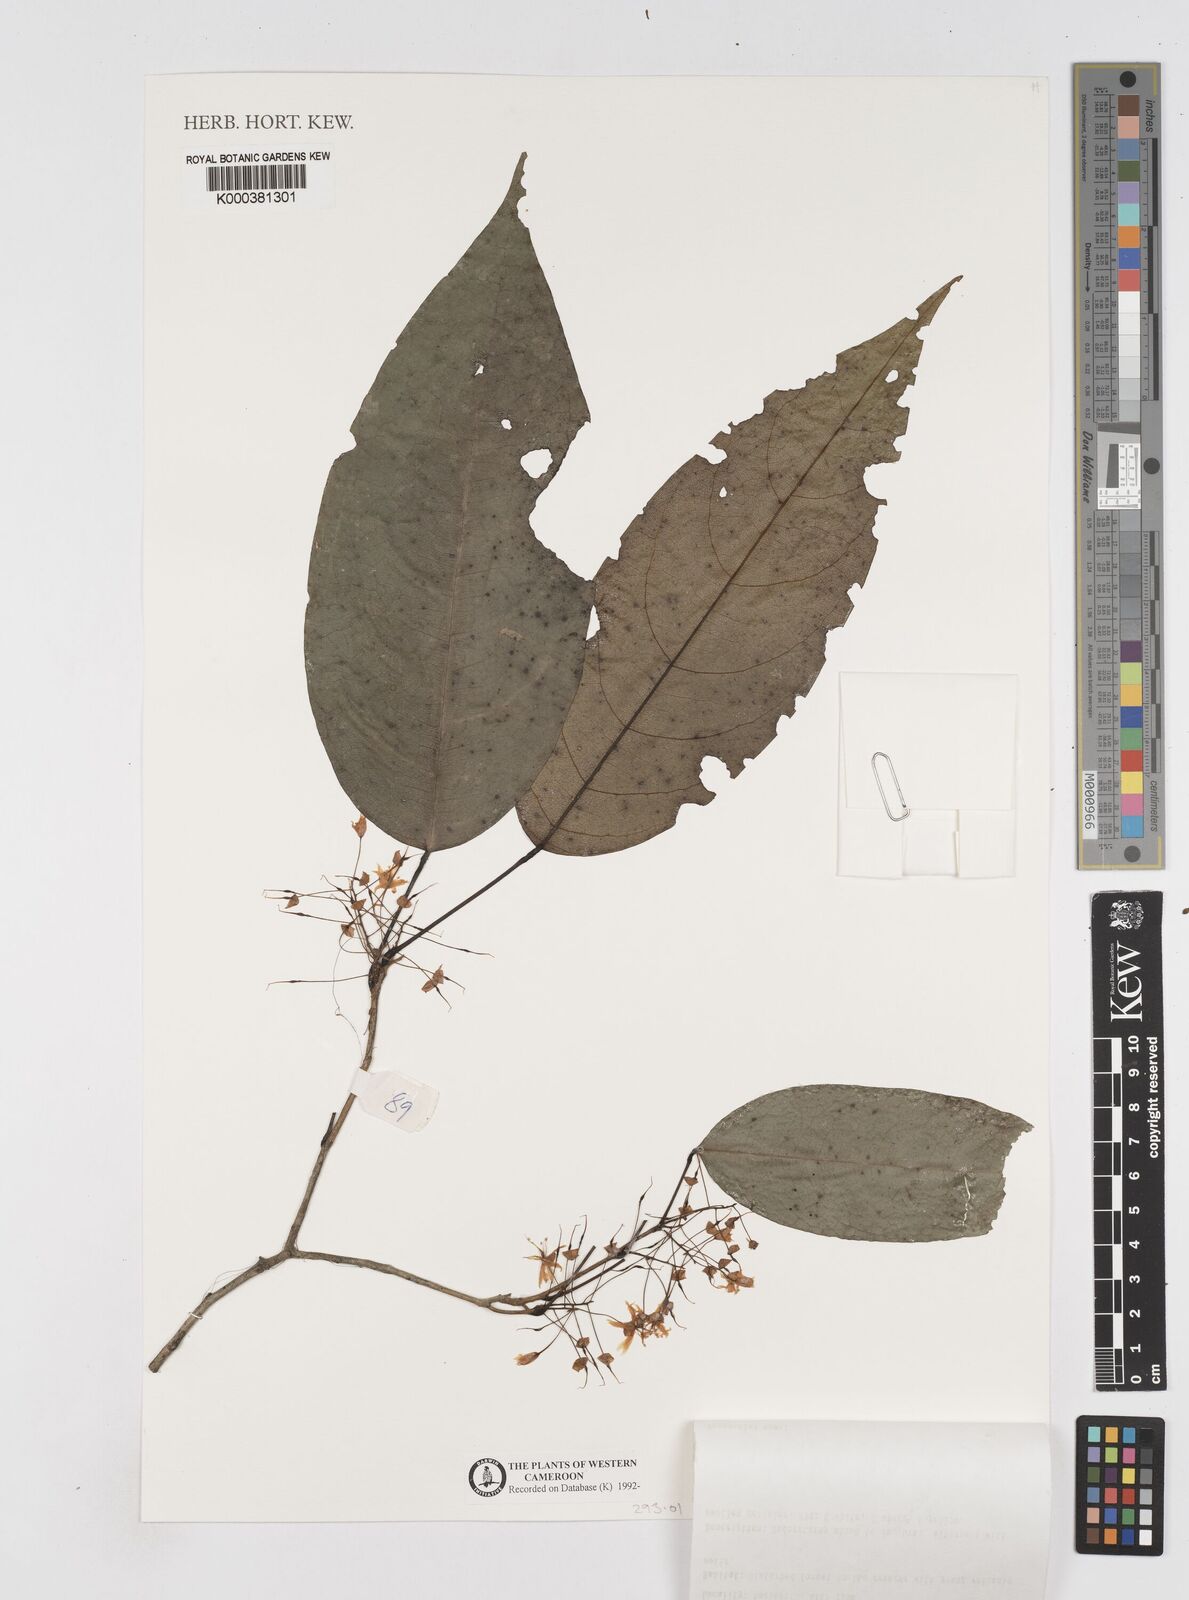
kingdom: Plantae
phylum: Tracheophyta
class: Magnoliopsida
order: Fabales
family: Fabaceae
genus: Baphiopsis
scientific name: Baphiopsis parviflora
